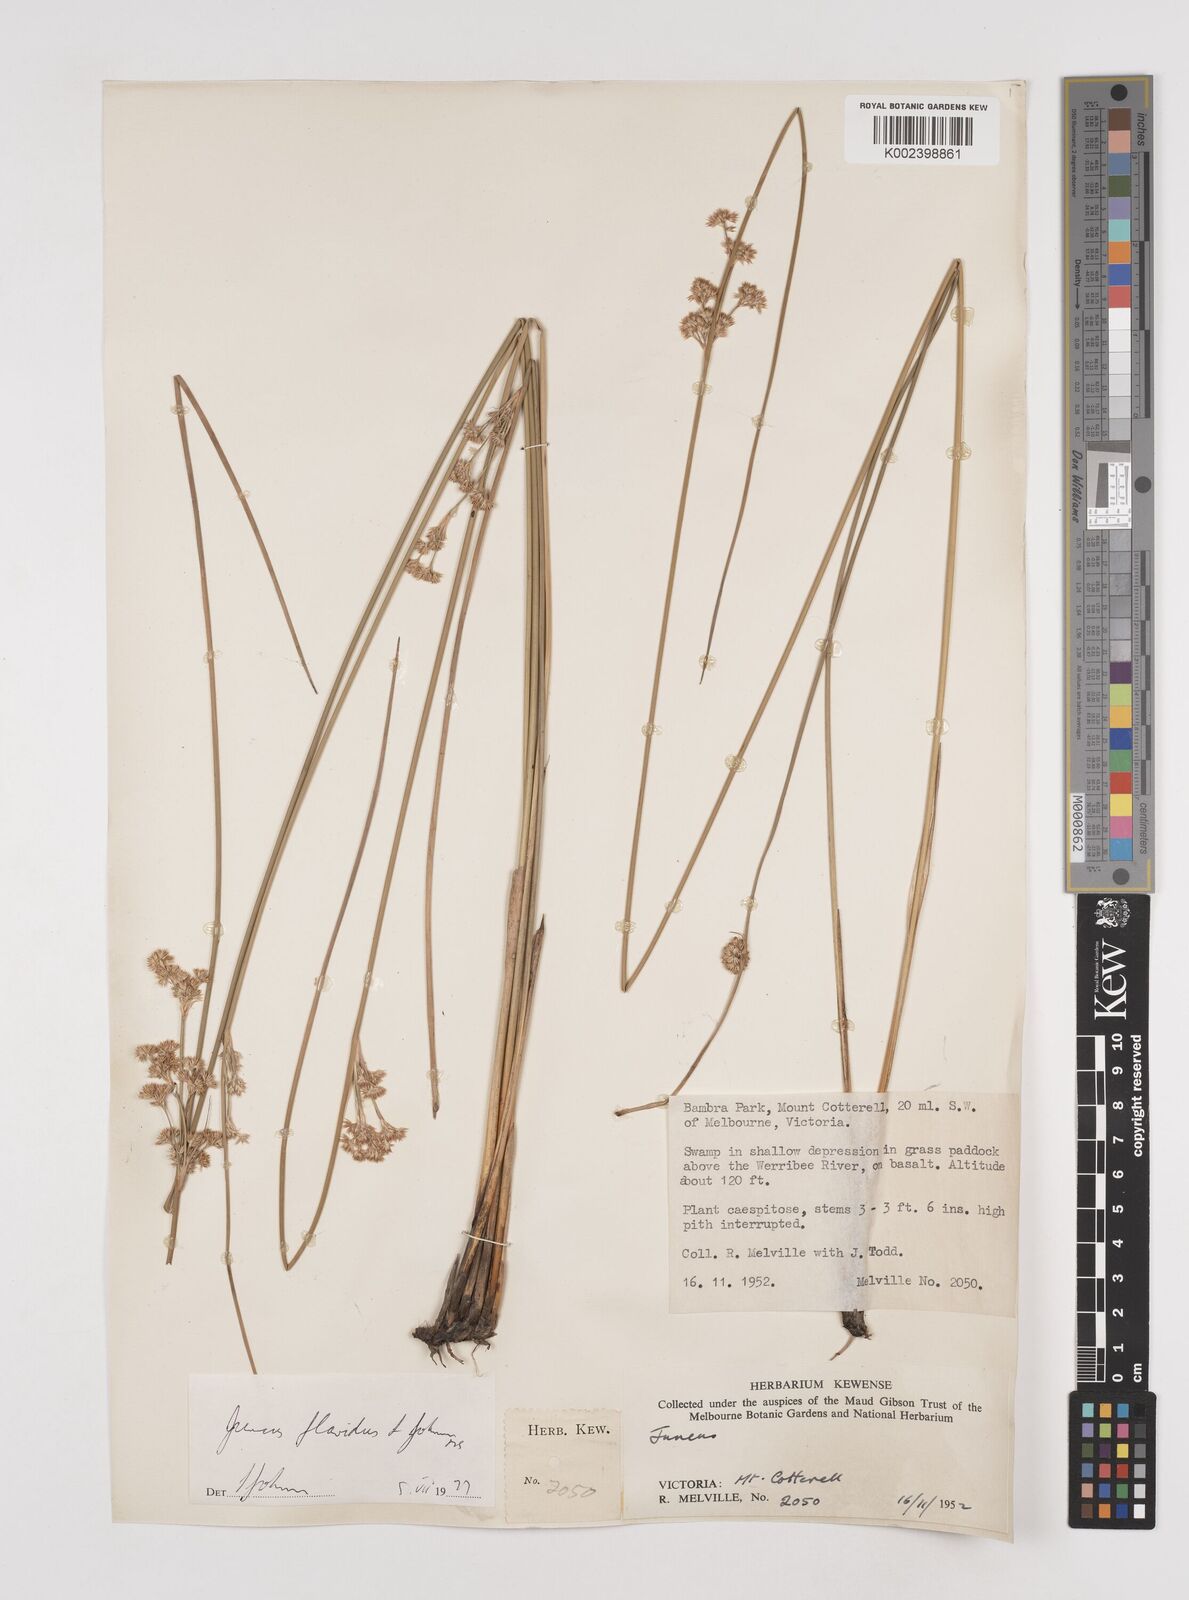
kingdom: Plantae
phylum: Tracheophyta
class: Liliopsida
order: Poales
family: Juncaceae
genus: Juncus
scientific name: Juncus flavidus
